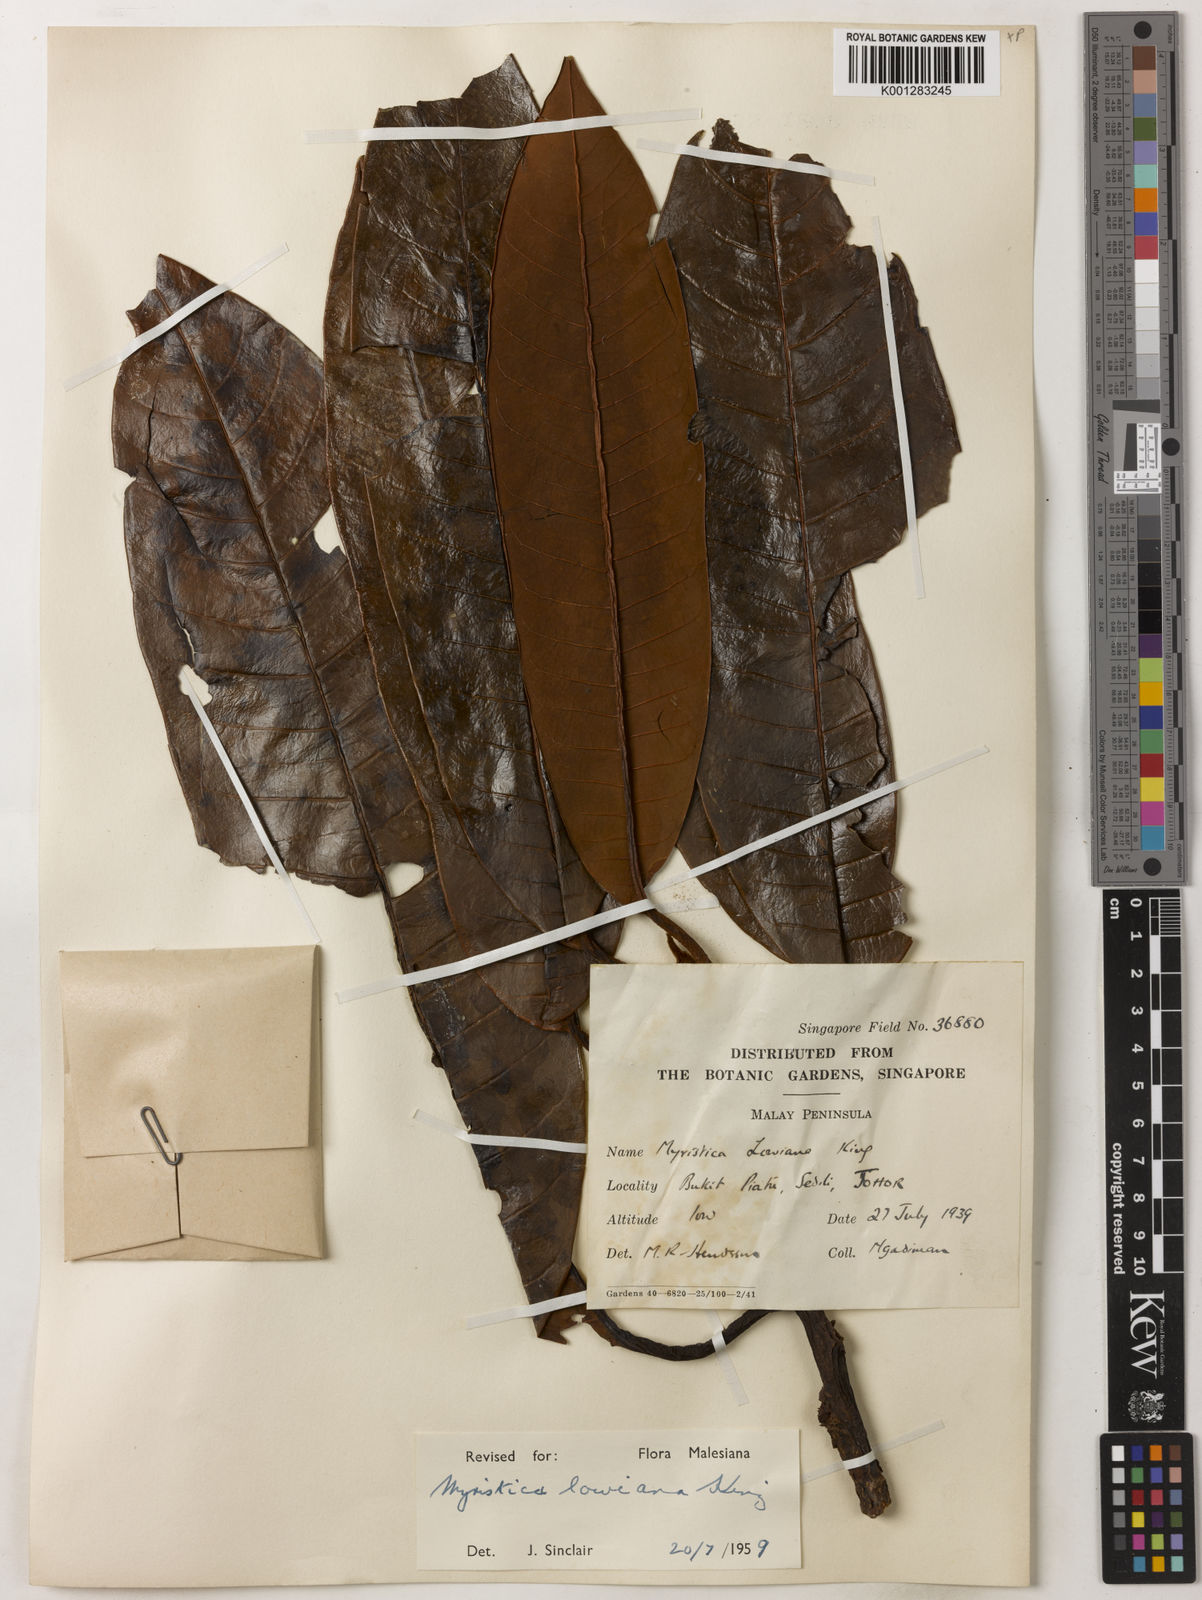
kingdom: Plantae
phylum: Tracheophyta
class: Magnoliopsida
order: Magnoliales
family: Myristicaceae
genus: Myristica
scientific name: Myristica lowiana
